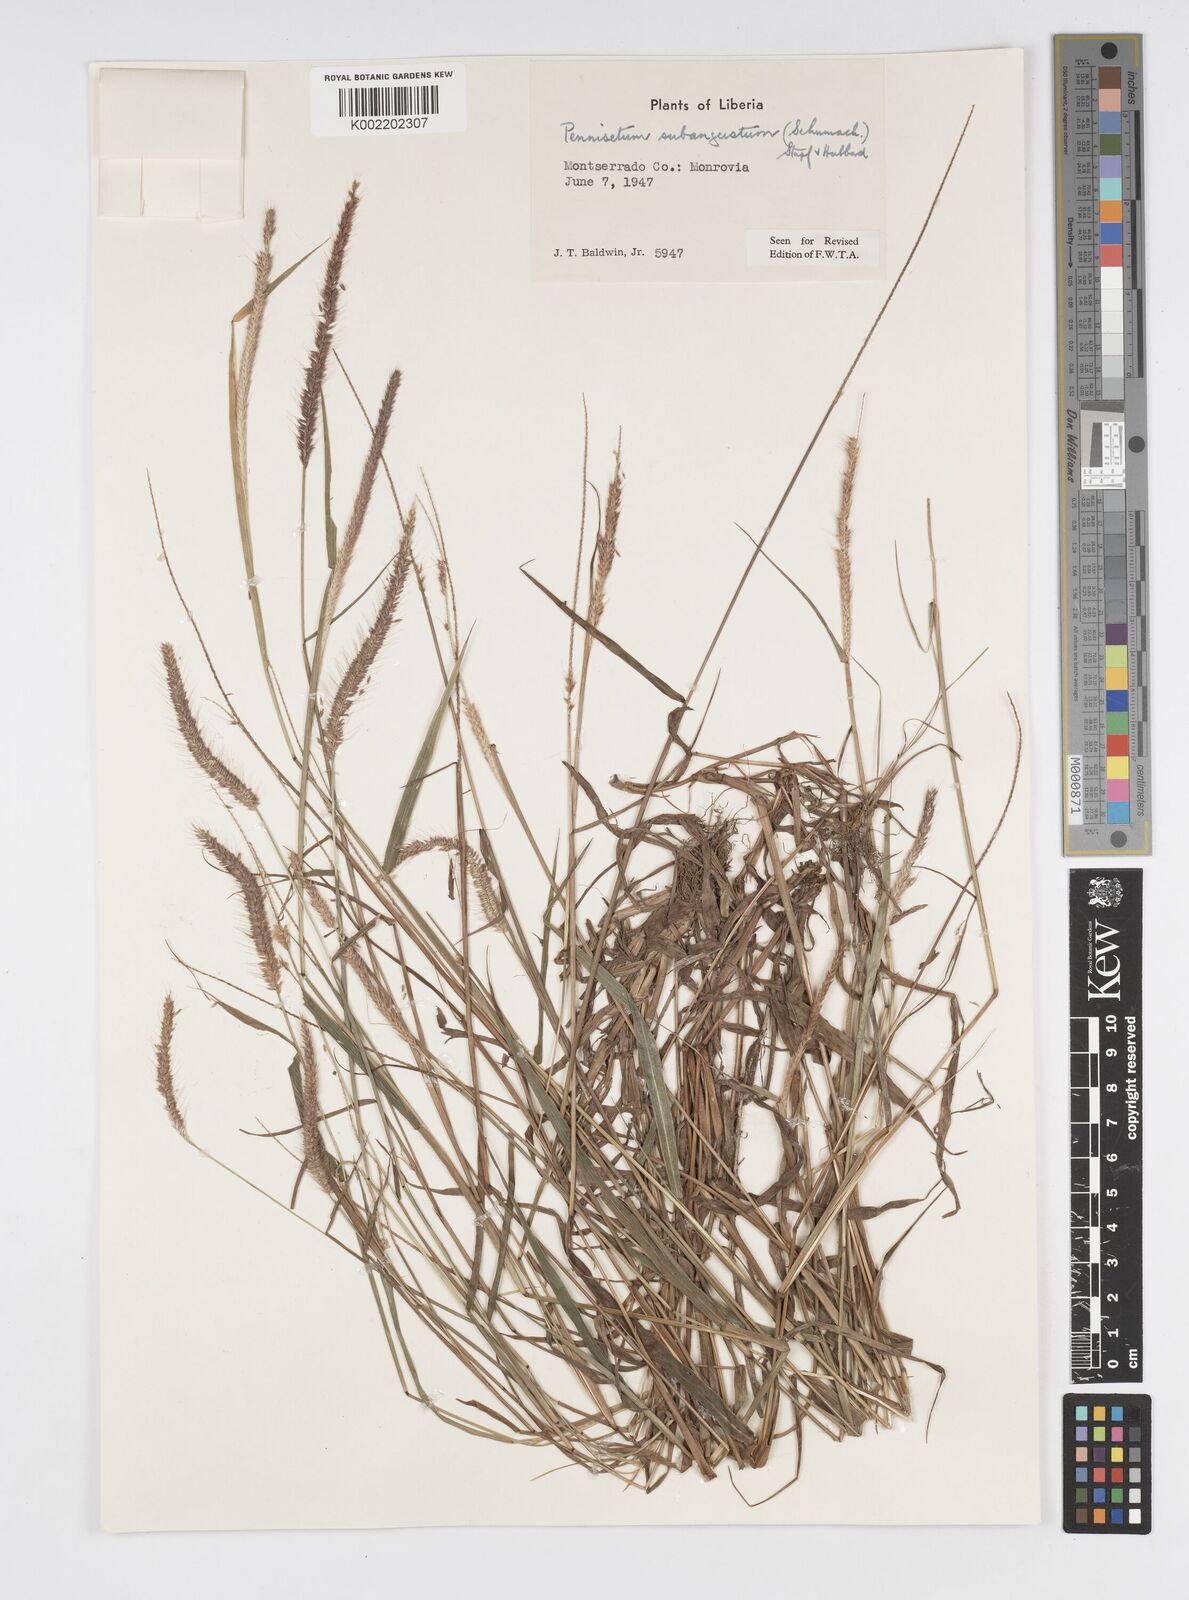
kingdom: Plantae
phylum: Tracheophyta
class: Liliopsida
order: Poales
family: Poaceae
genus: Setaria
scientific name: Setaria parviflora
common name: Knotroot bristle-grass
